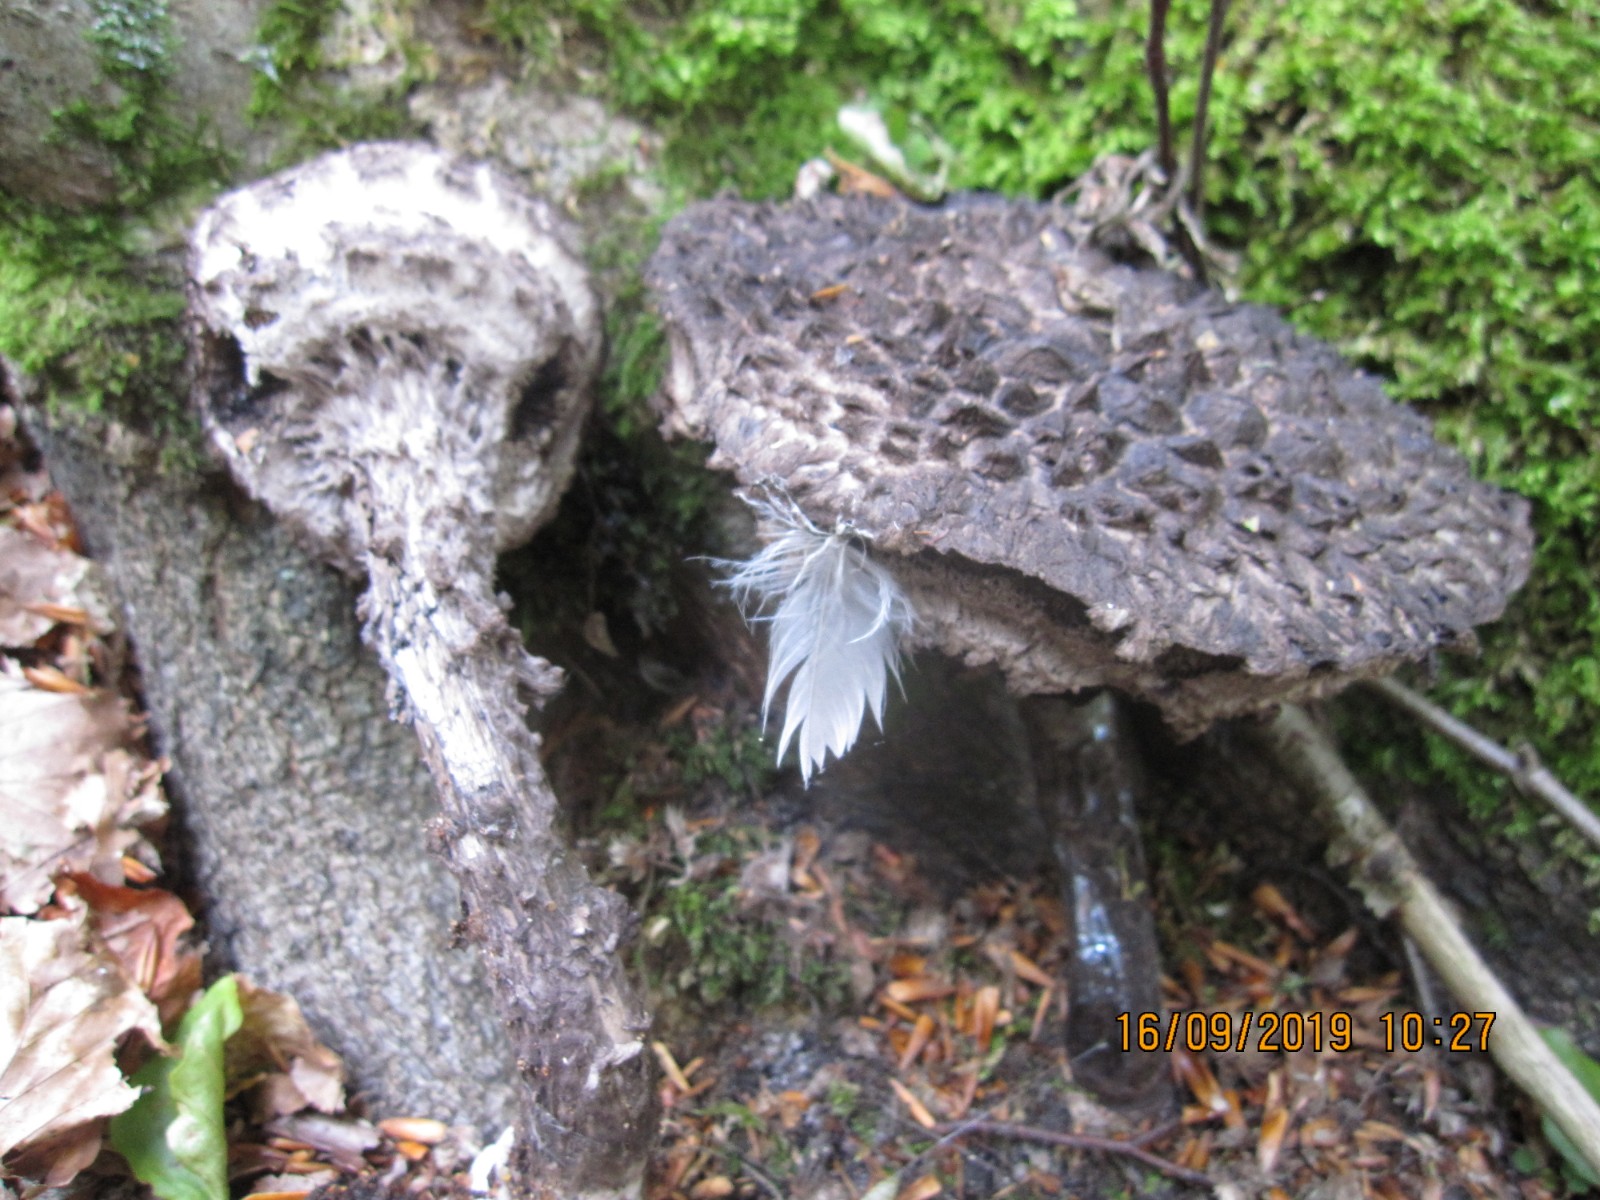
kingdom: Fungi
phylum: Basidiomycota
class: Agaricomycetes
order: Boletales
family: Boletaceae
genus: Strobilomyces
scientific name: Strobilomyces strobilaceus
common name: koglerørhat
